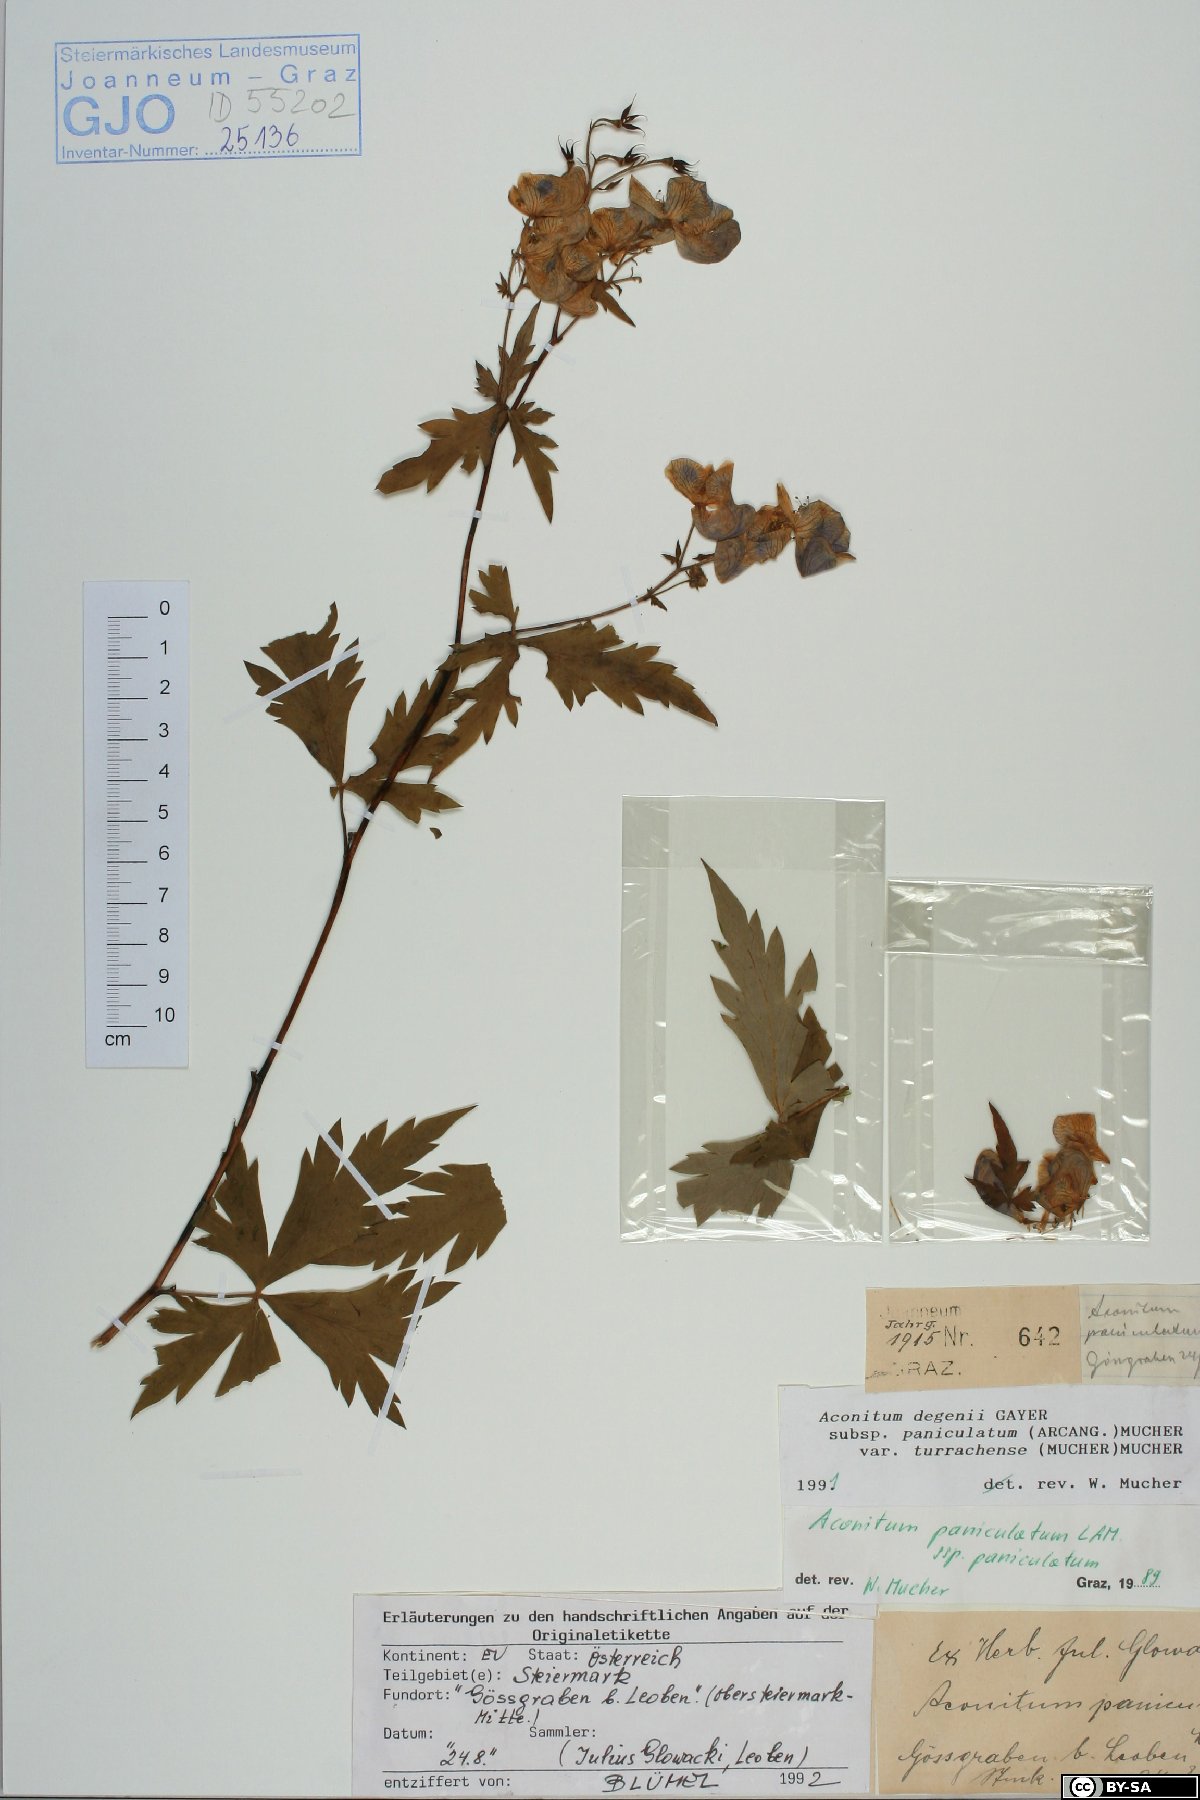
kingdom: Plantae
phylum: Tracheophyta
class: Magnoliopsida
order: Ranunculales
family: Ranunculaceae
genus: Aconitum
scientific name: Aconitum degenii
